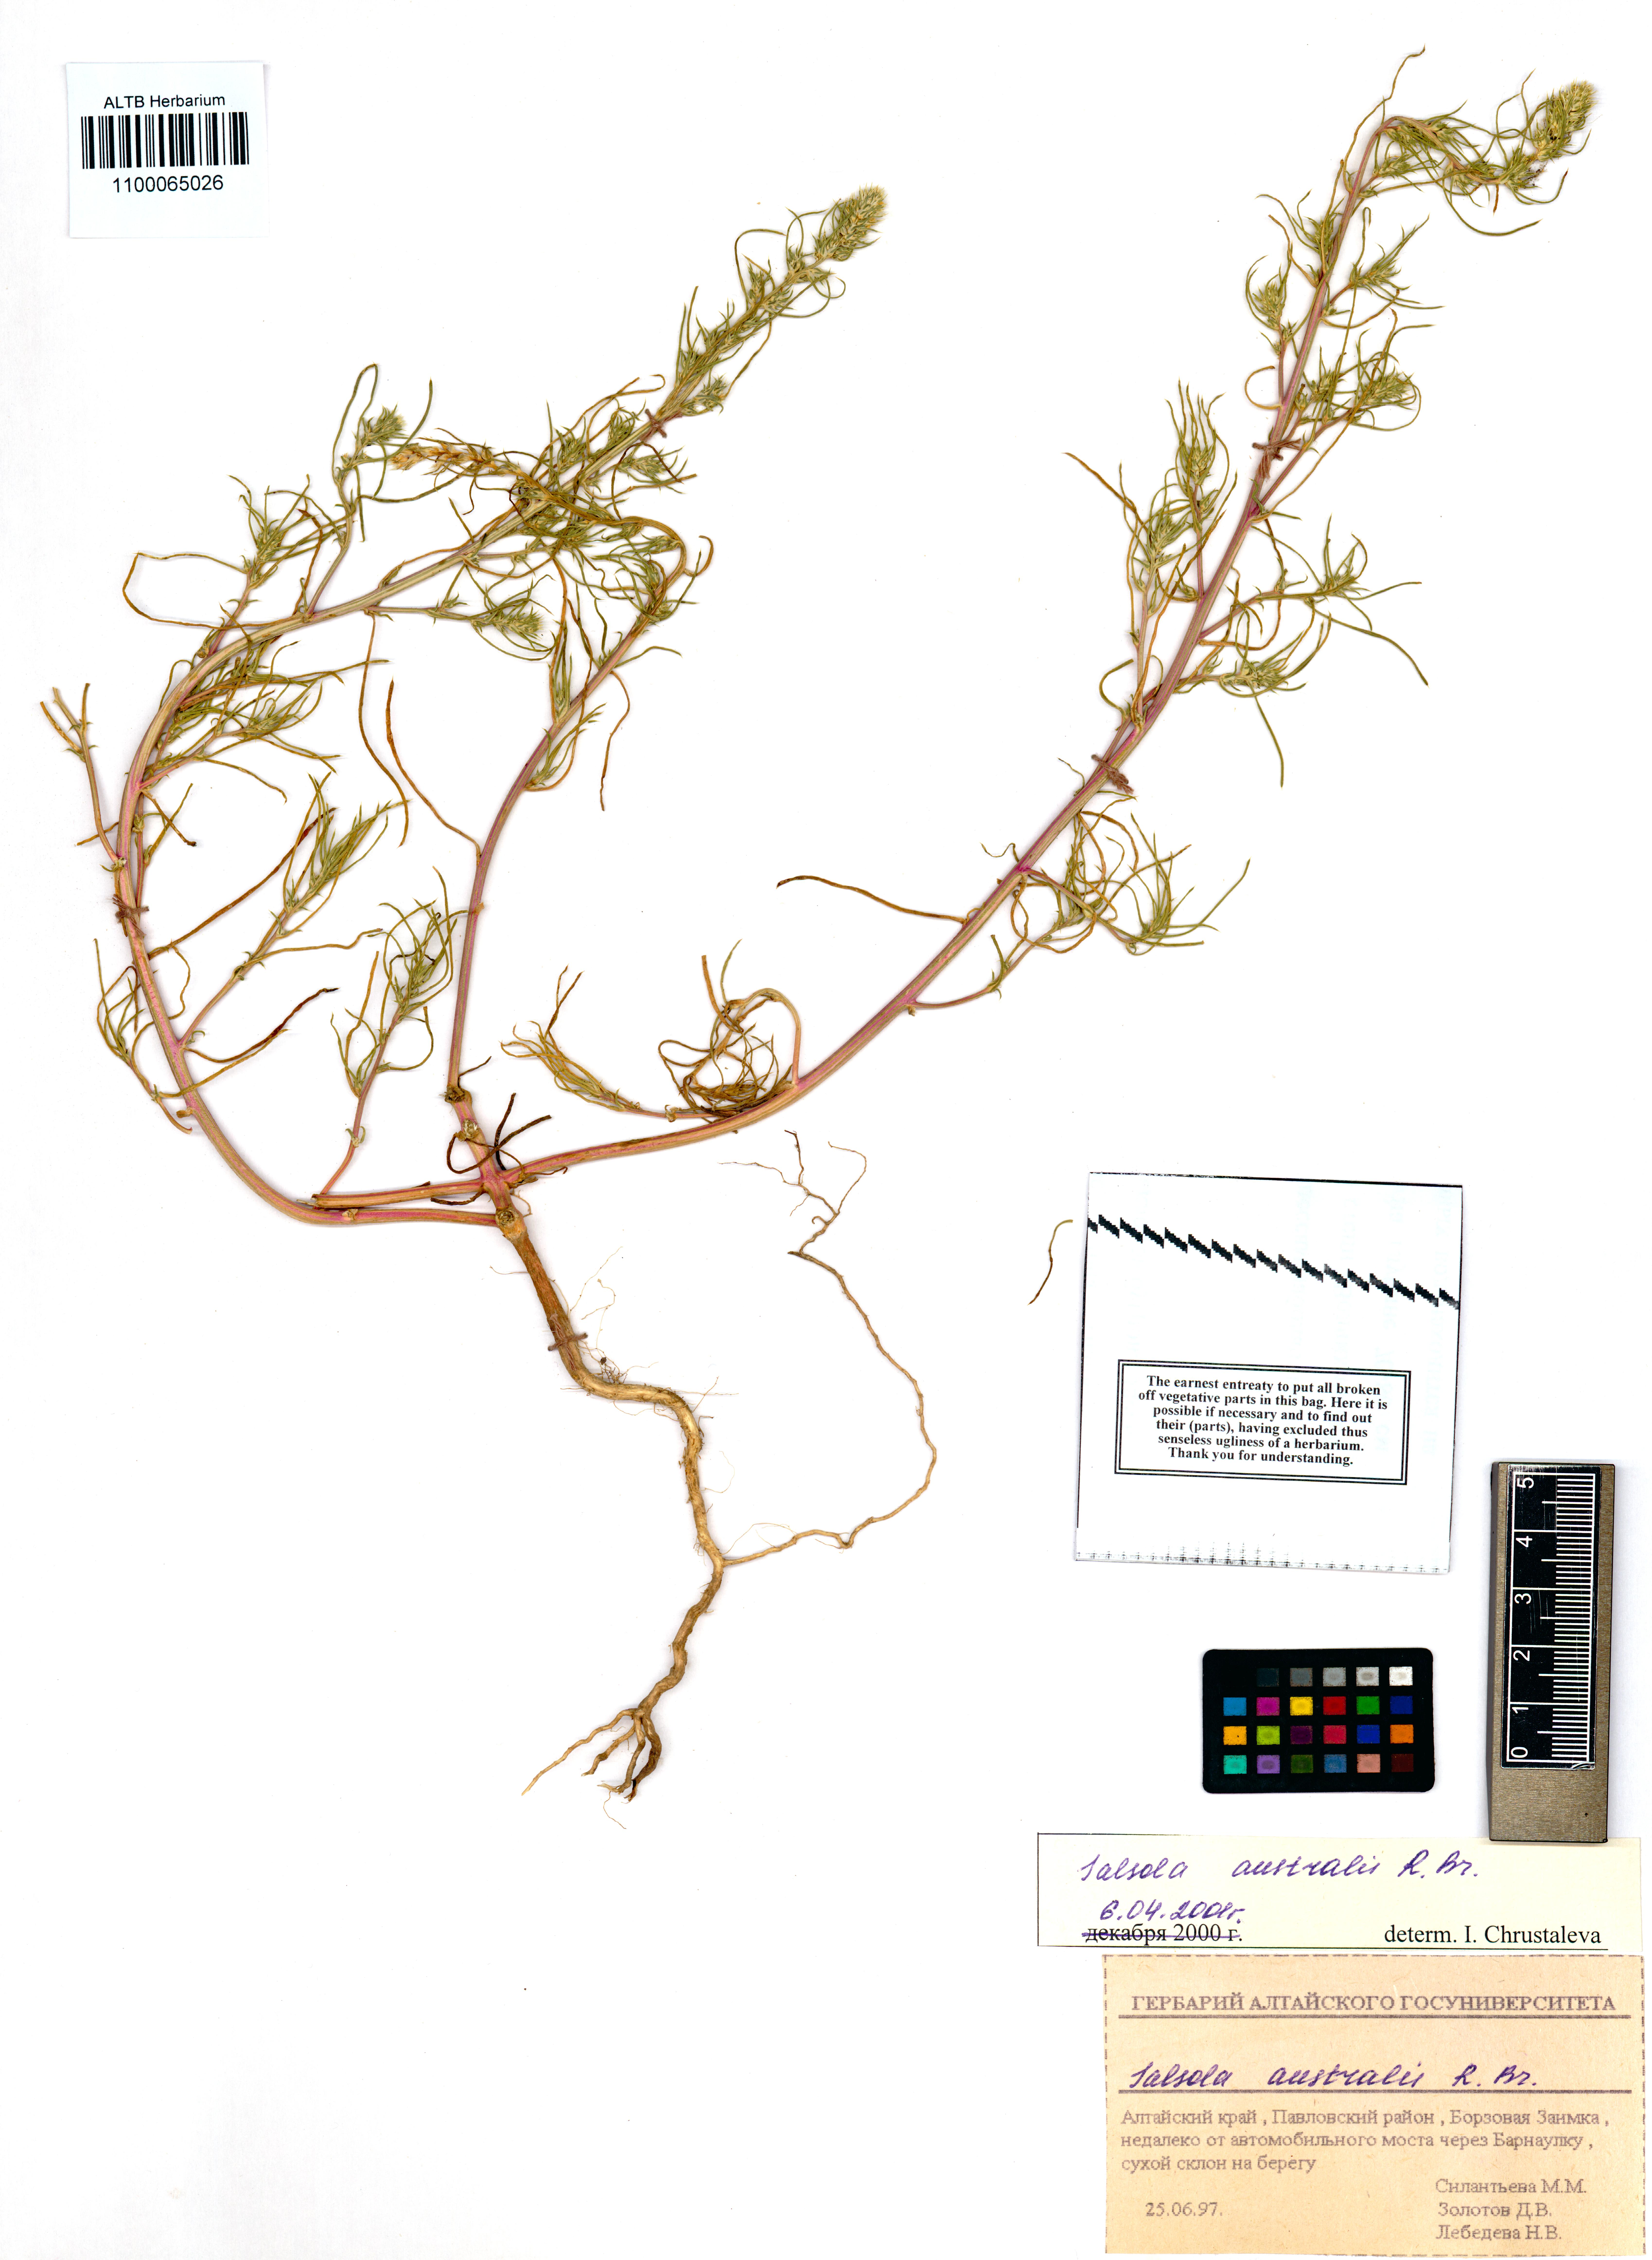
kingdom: Plantae
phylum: Tracheophyta
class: Magnoliopsida
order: Caryophyllales
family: Amaranthaceae
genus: Salsola
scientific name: Salsola australis
